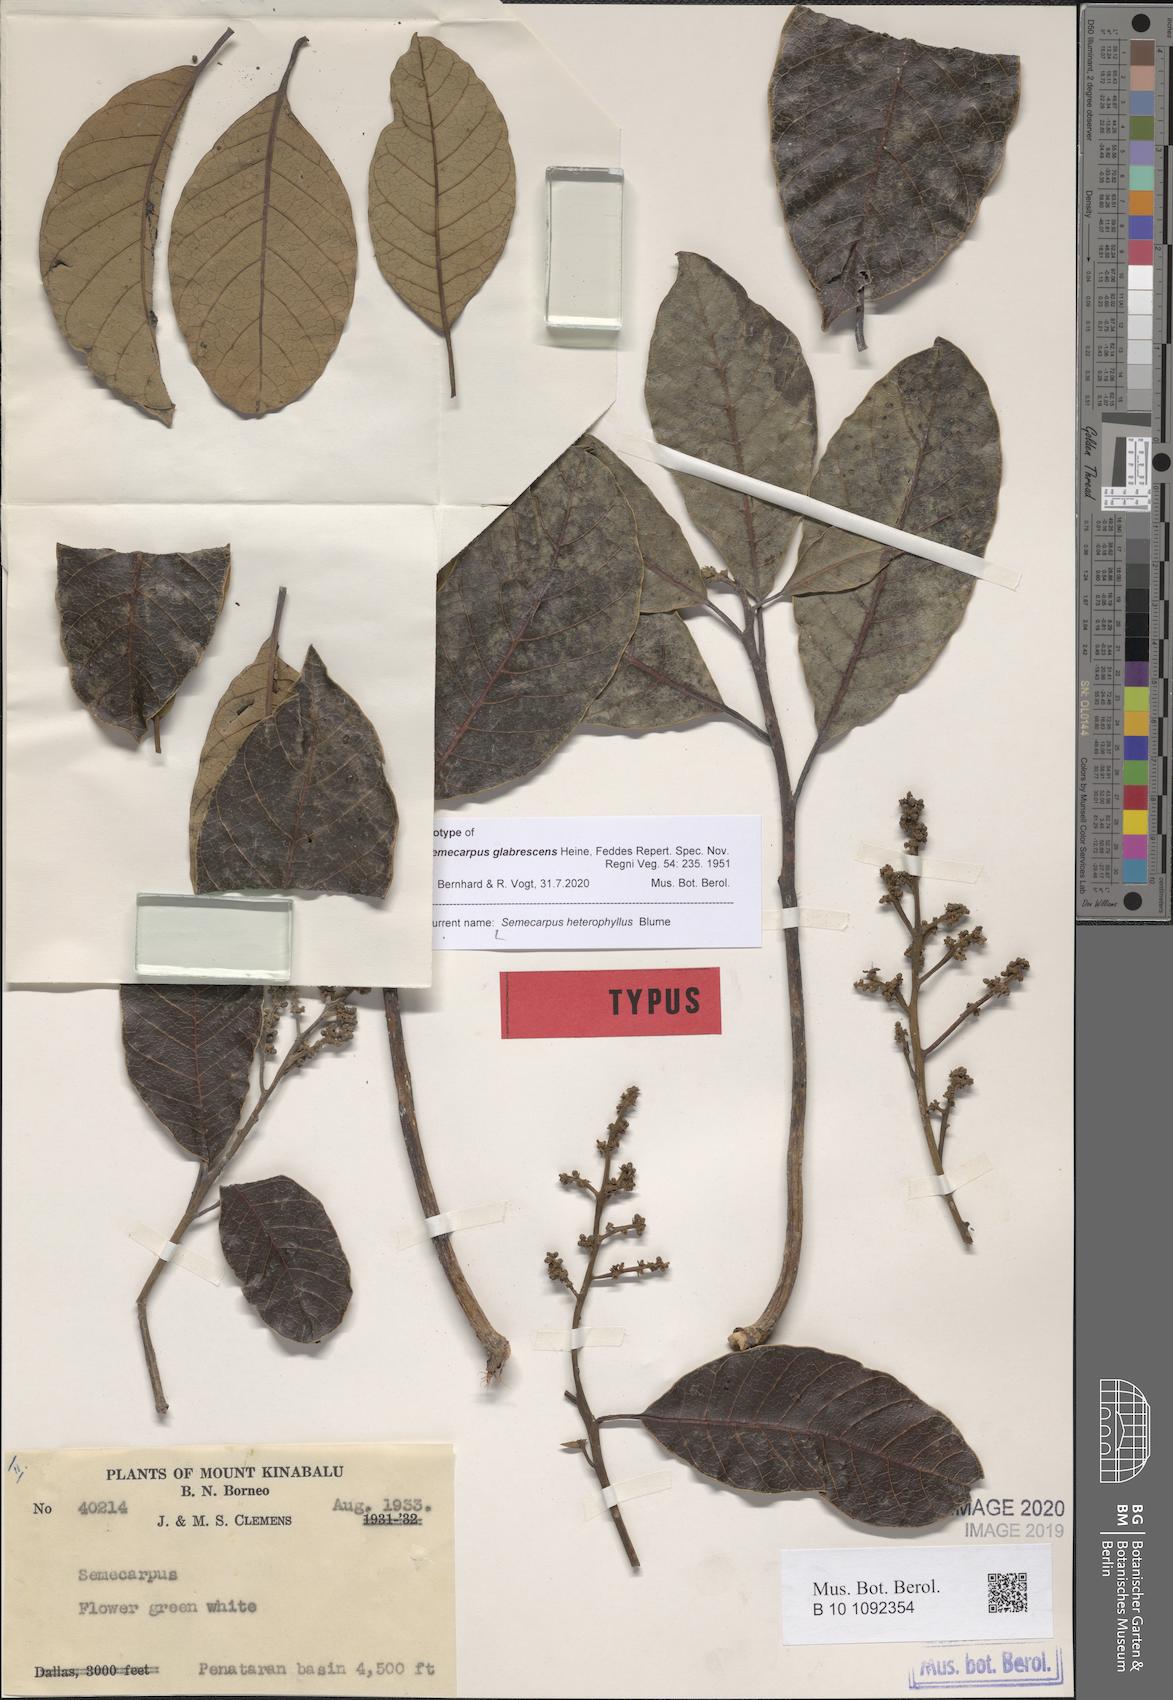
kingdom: Plantae
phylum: Tracheophyta
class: Magnoliopsida
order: Sapindales
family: Anacardiaceae
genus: Semecarpus
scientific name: Semecarpus heterophyllus
